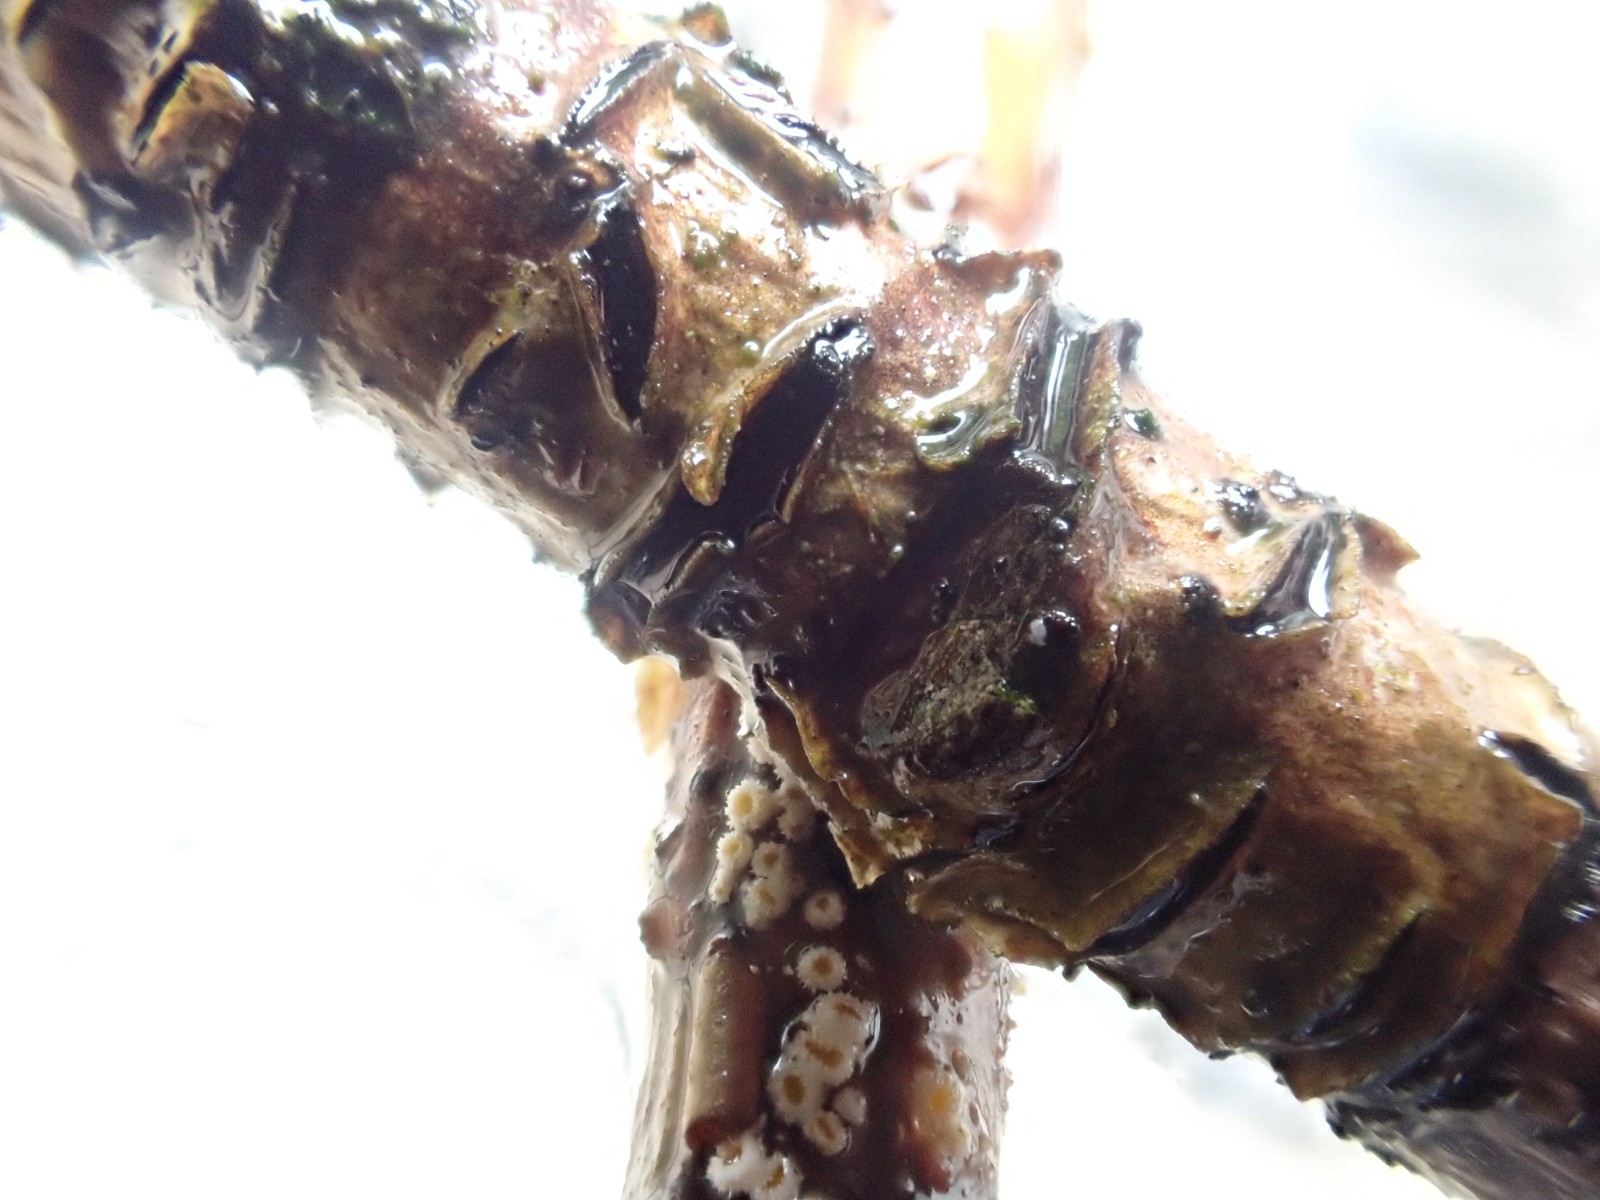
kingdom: Fungi
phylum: Ascomycota
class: Leotiomycetes
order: Rhytismatales
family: Rhytismataceae
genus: Colpoma
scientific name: Colpoma quercinum
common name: ege-sprækkeskive
